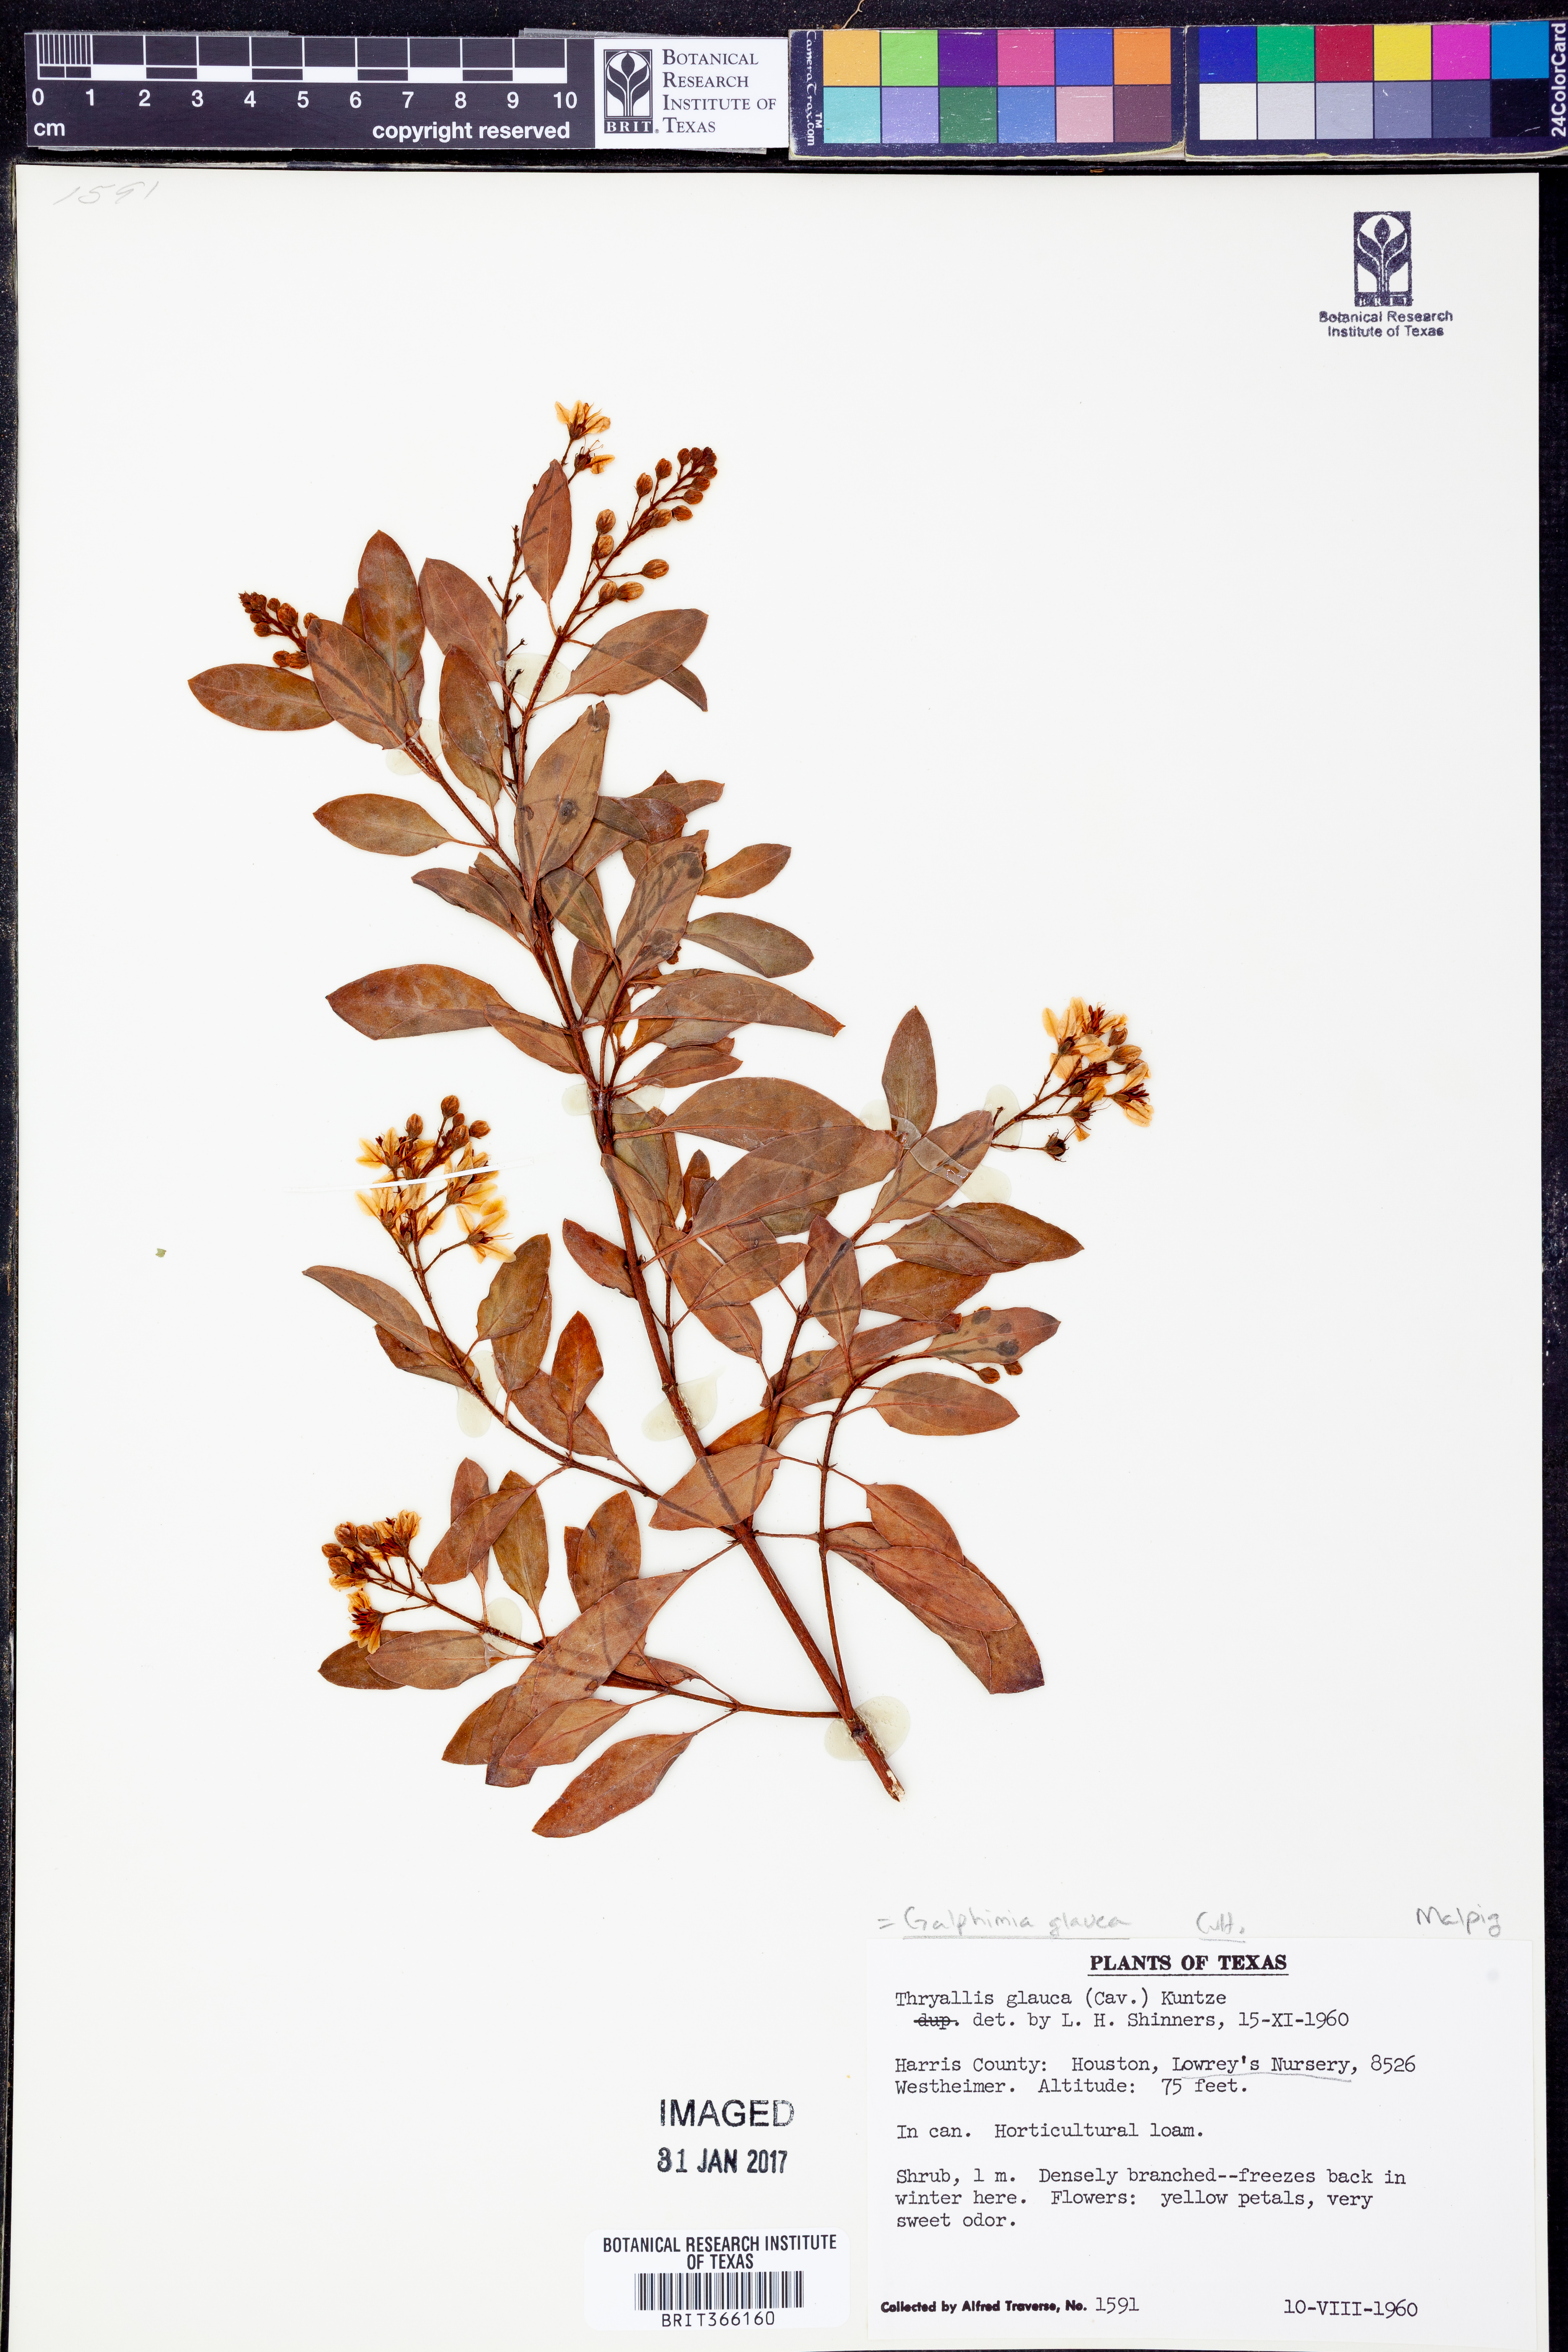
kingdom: Plantae
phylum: Tracheophyta
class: Magnoliopsida
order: Malpighiales
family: Malpighiaceae
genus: Galphimia
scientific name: Galphimia gracilis
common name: Slender goldshower
